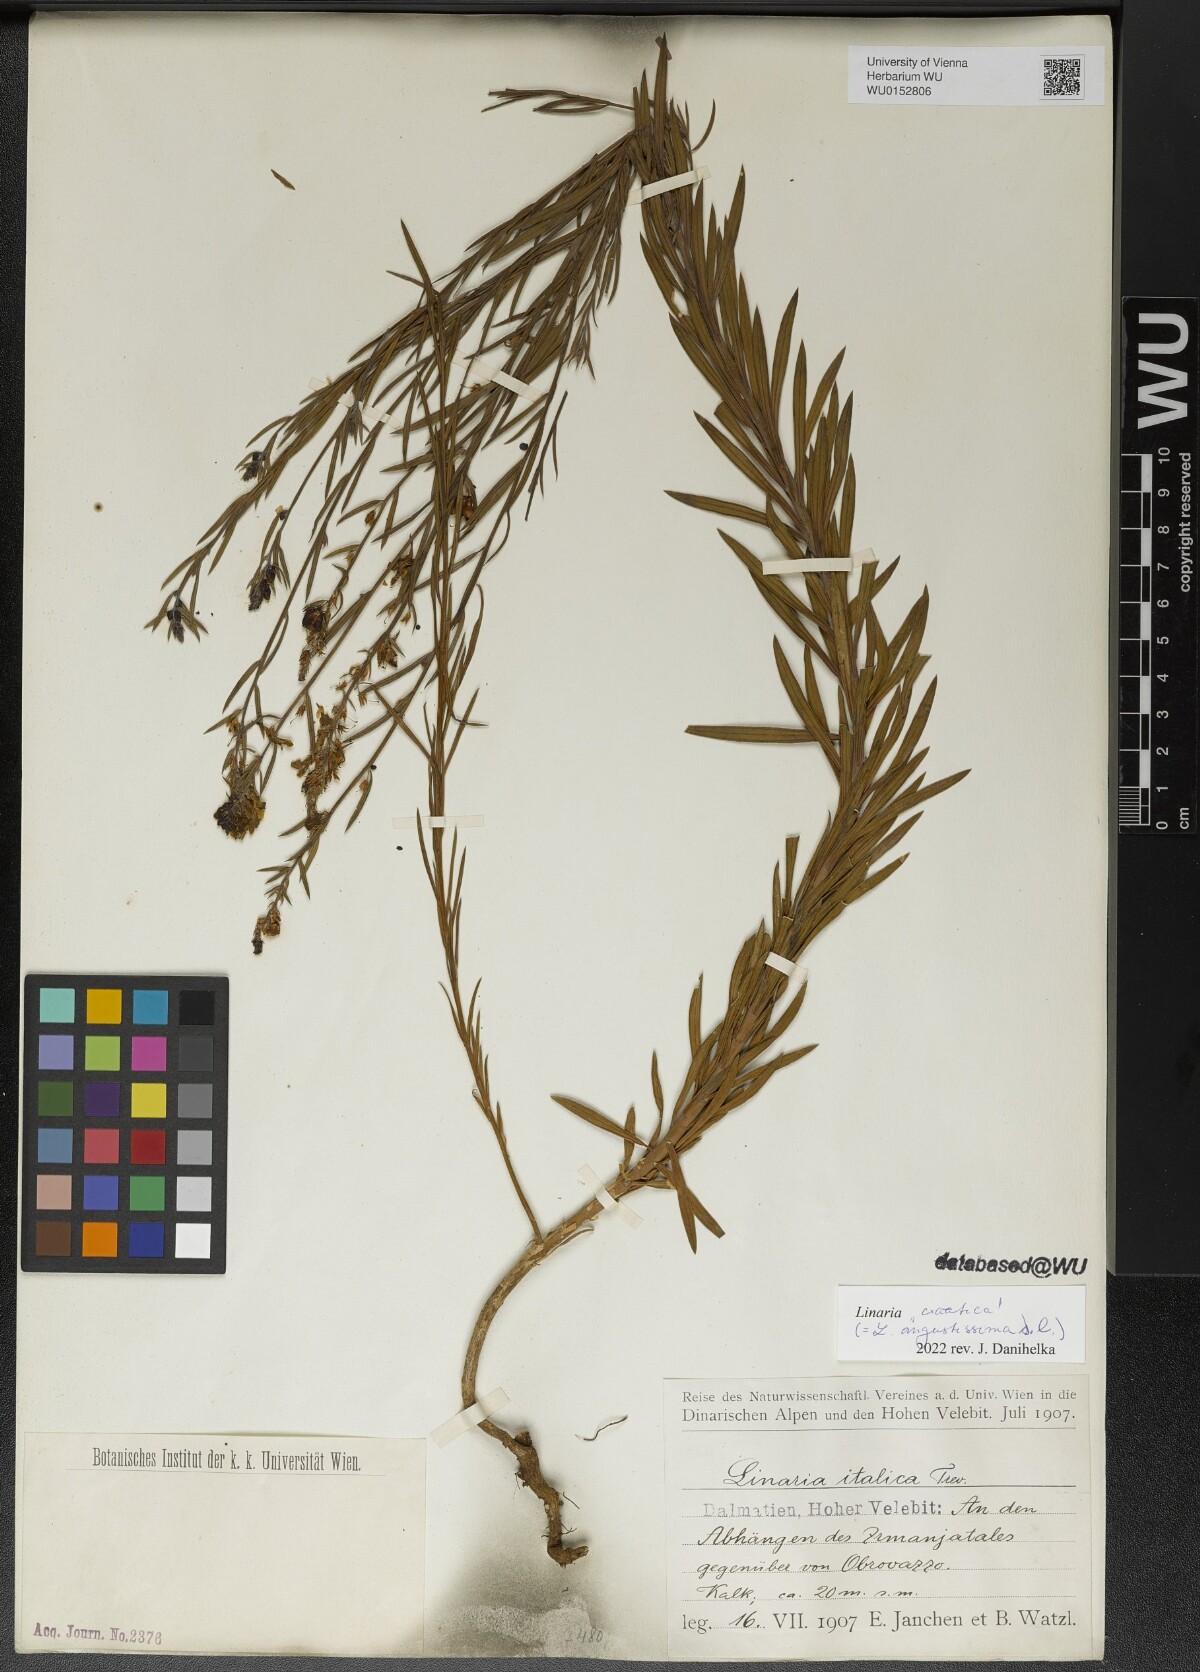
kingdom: Plantae
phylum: Tracheophyta
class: Magnoliopsida
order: Lamiales
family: Plantaginaceae
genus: Linaria
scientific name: Linaria angustissima
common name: Italian toadflax
